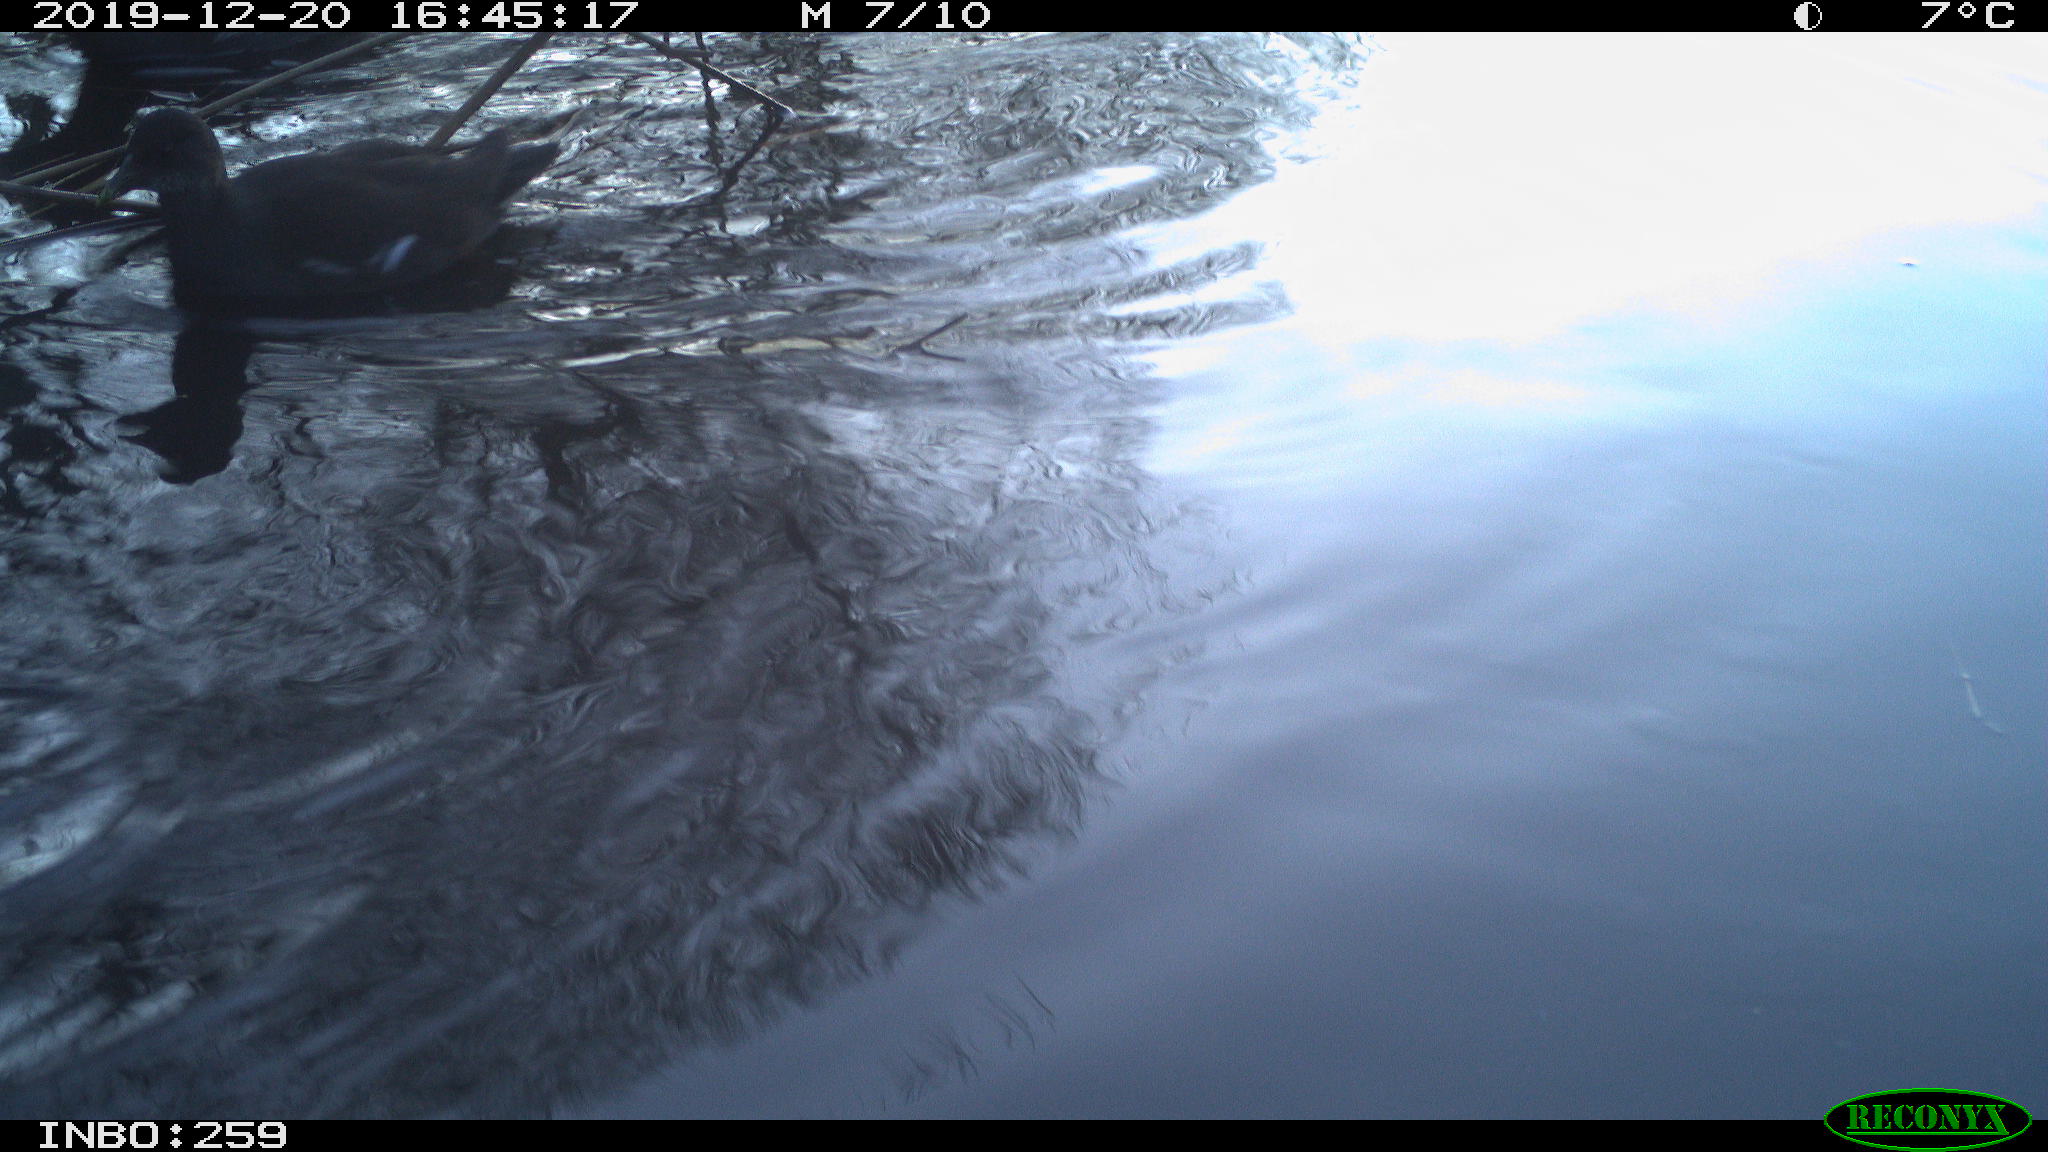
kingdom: Animalia
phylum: Chordata
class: Aves
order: Gruiformes
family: Rallidae
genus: Gallinula
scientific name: Gallinula chloropus
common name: Common moorhen
